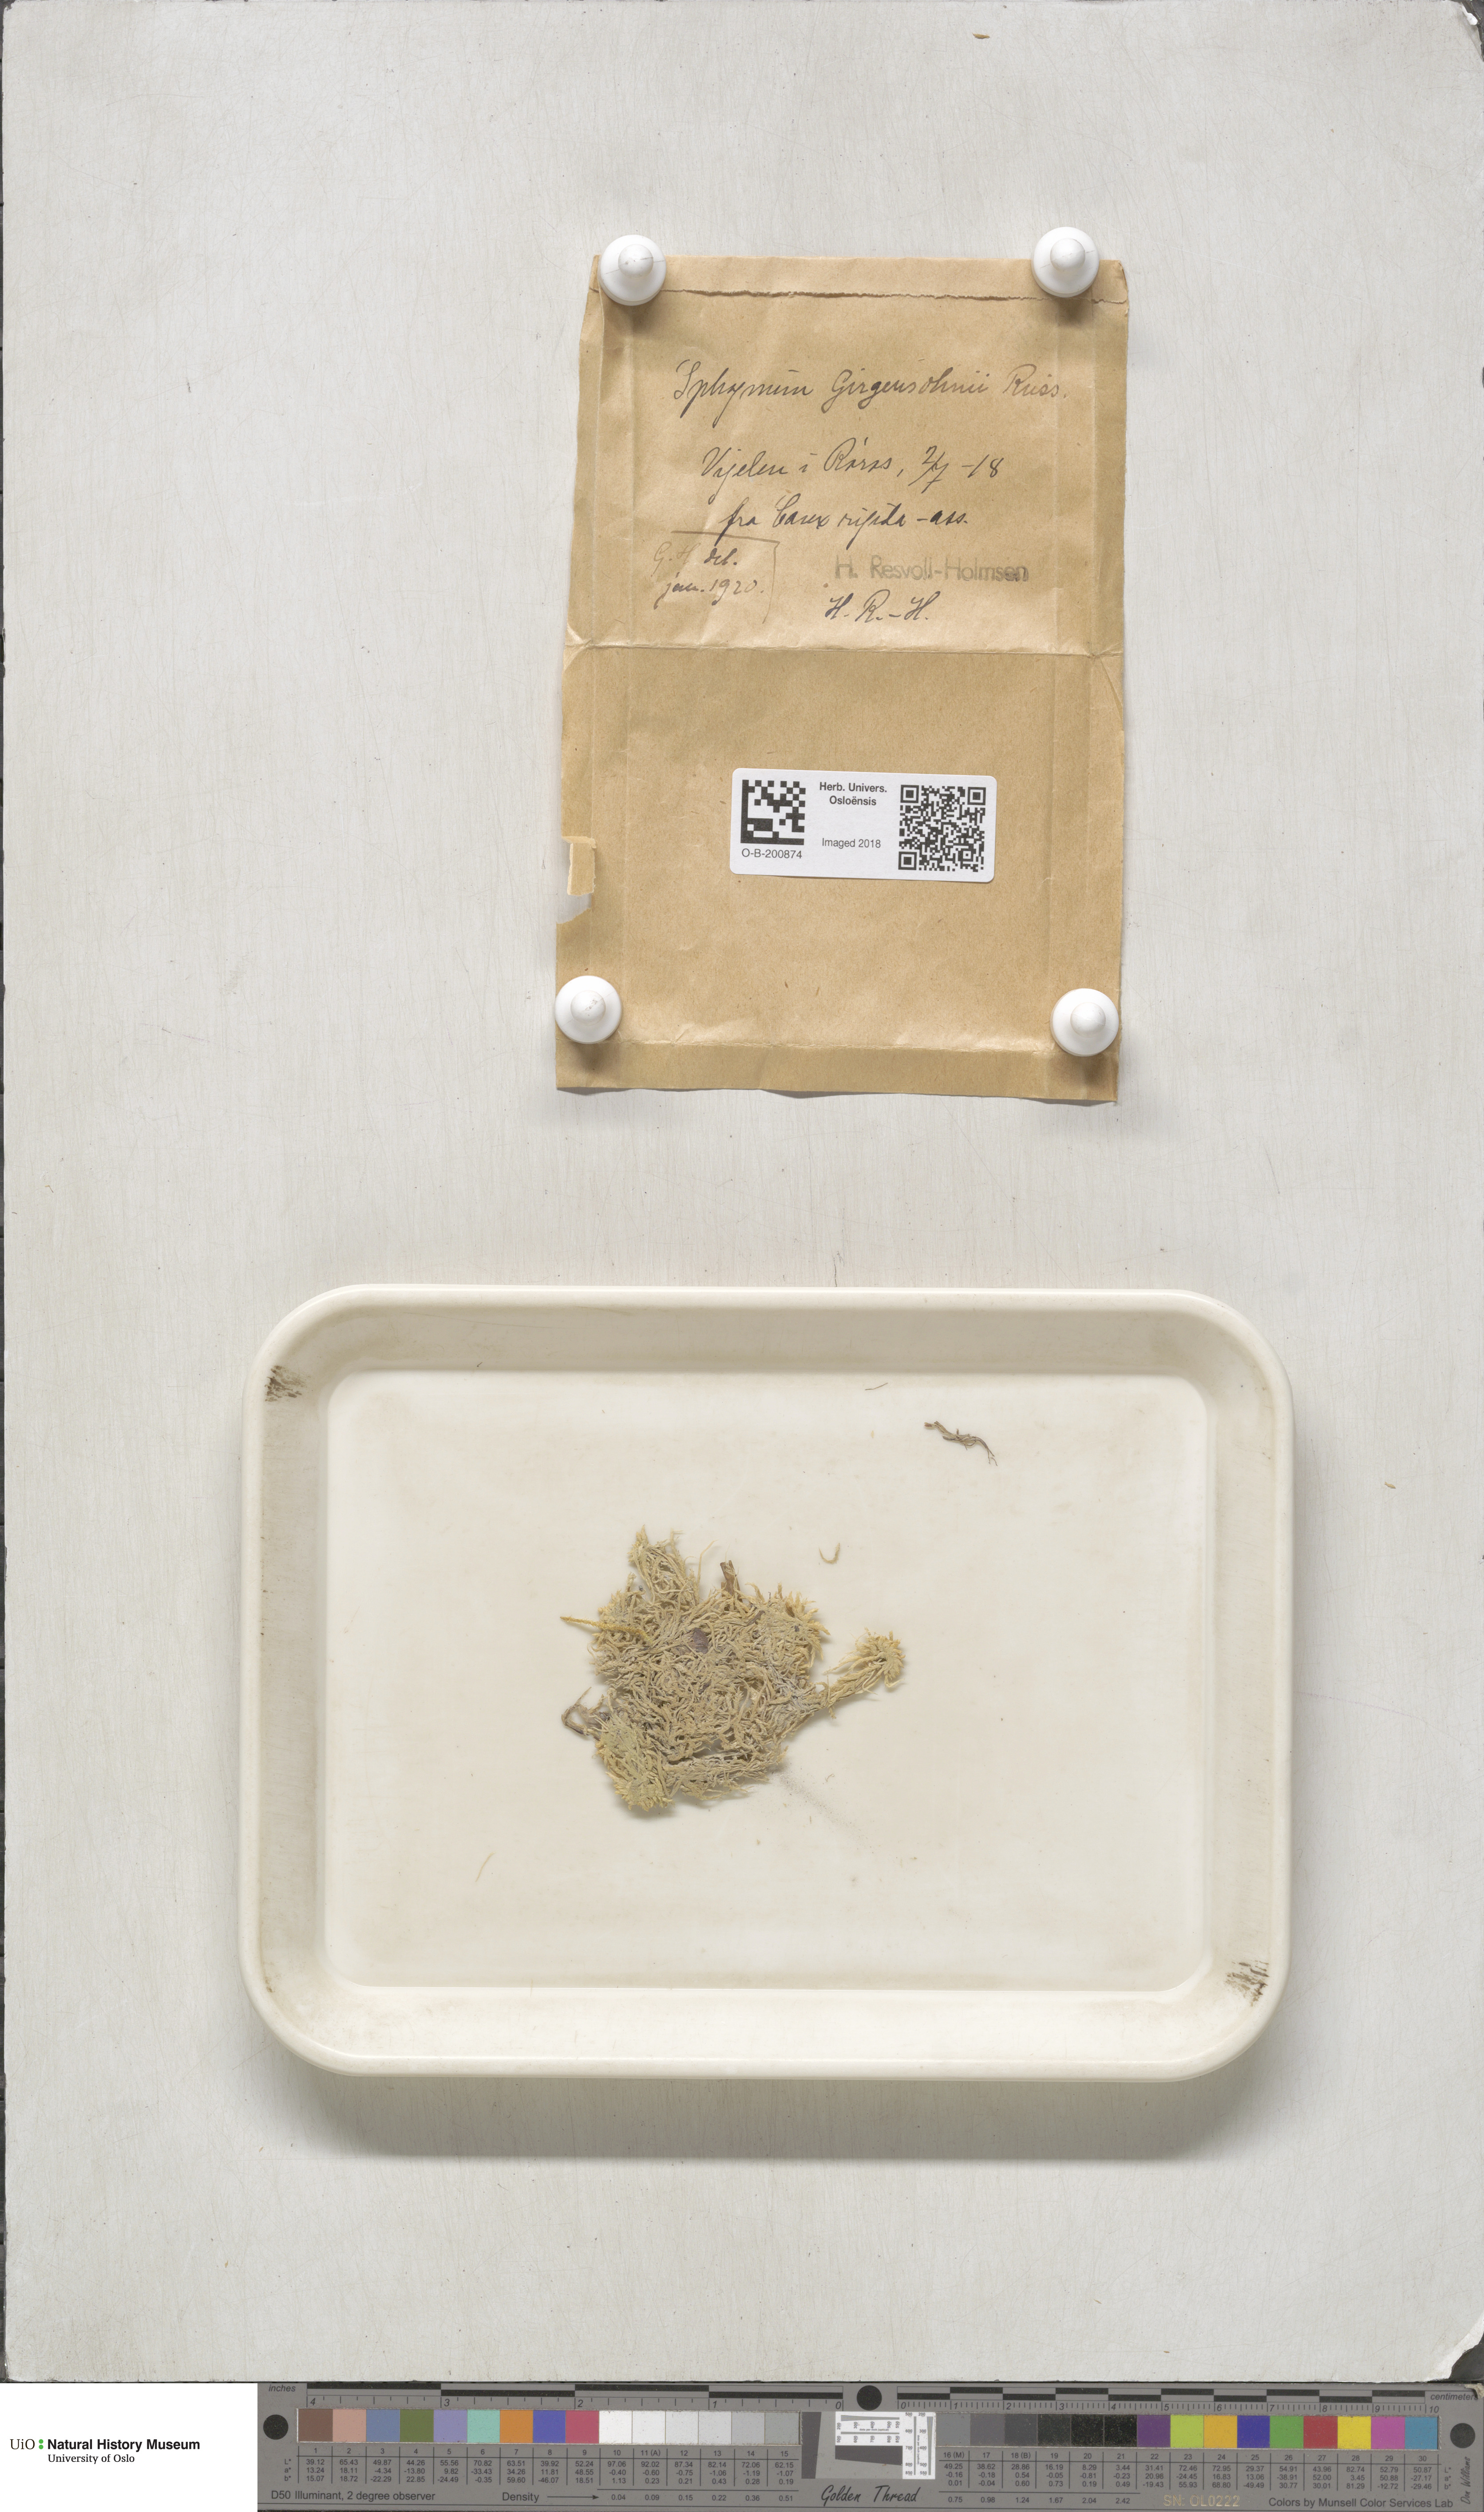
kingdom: Plantae
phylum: Bryophyta
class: Sphagnopsida
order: Sphagnales
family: Sphagnaceae
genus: Sphagnum
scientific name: Sphagnum girgensohnii
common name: Girgensohn's peat moss
